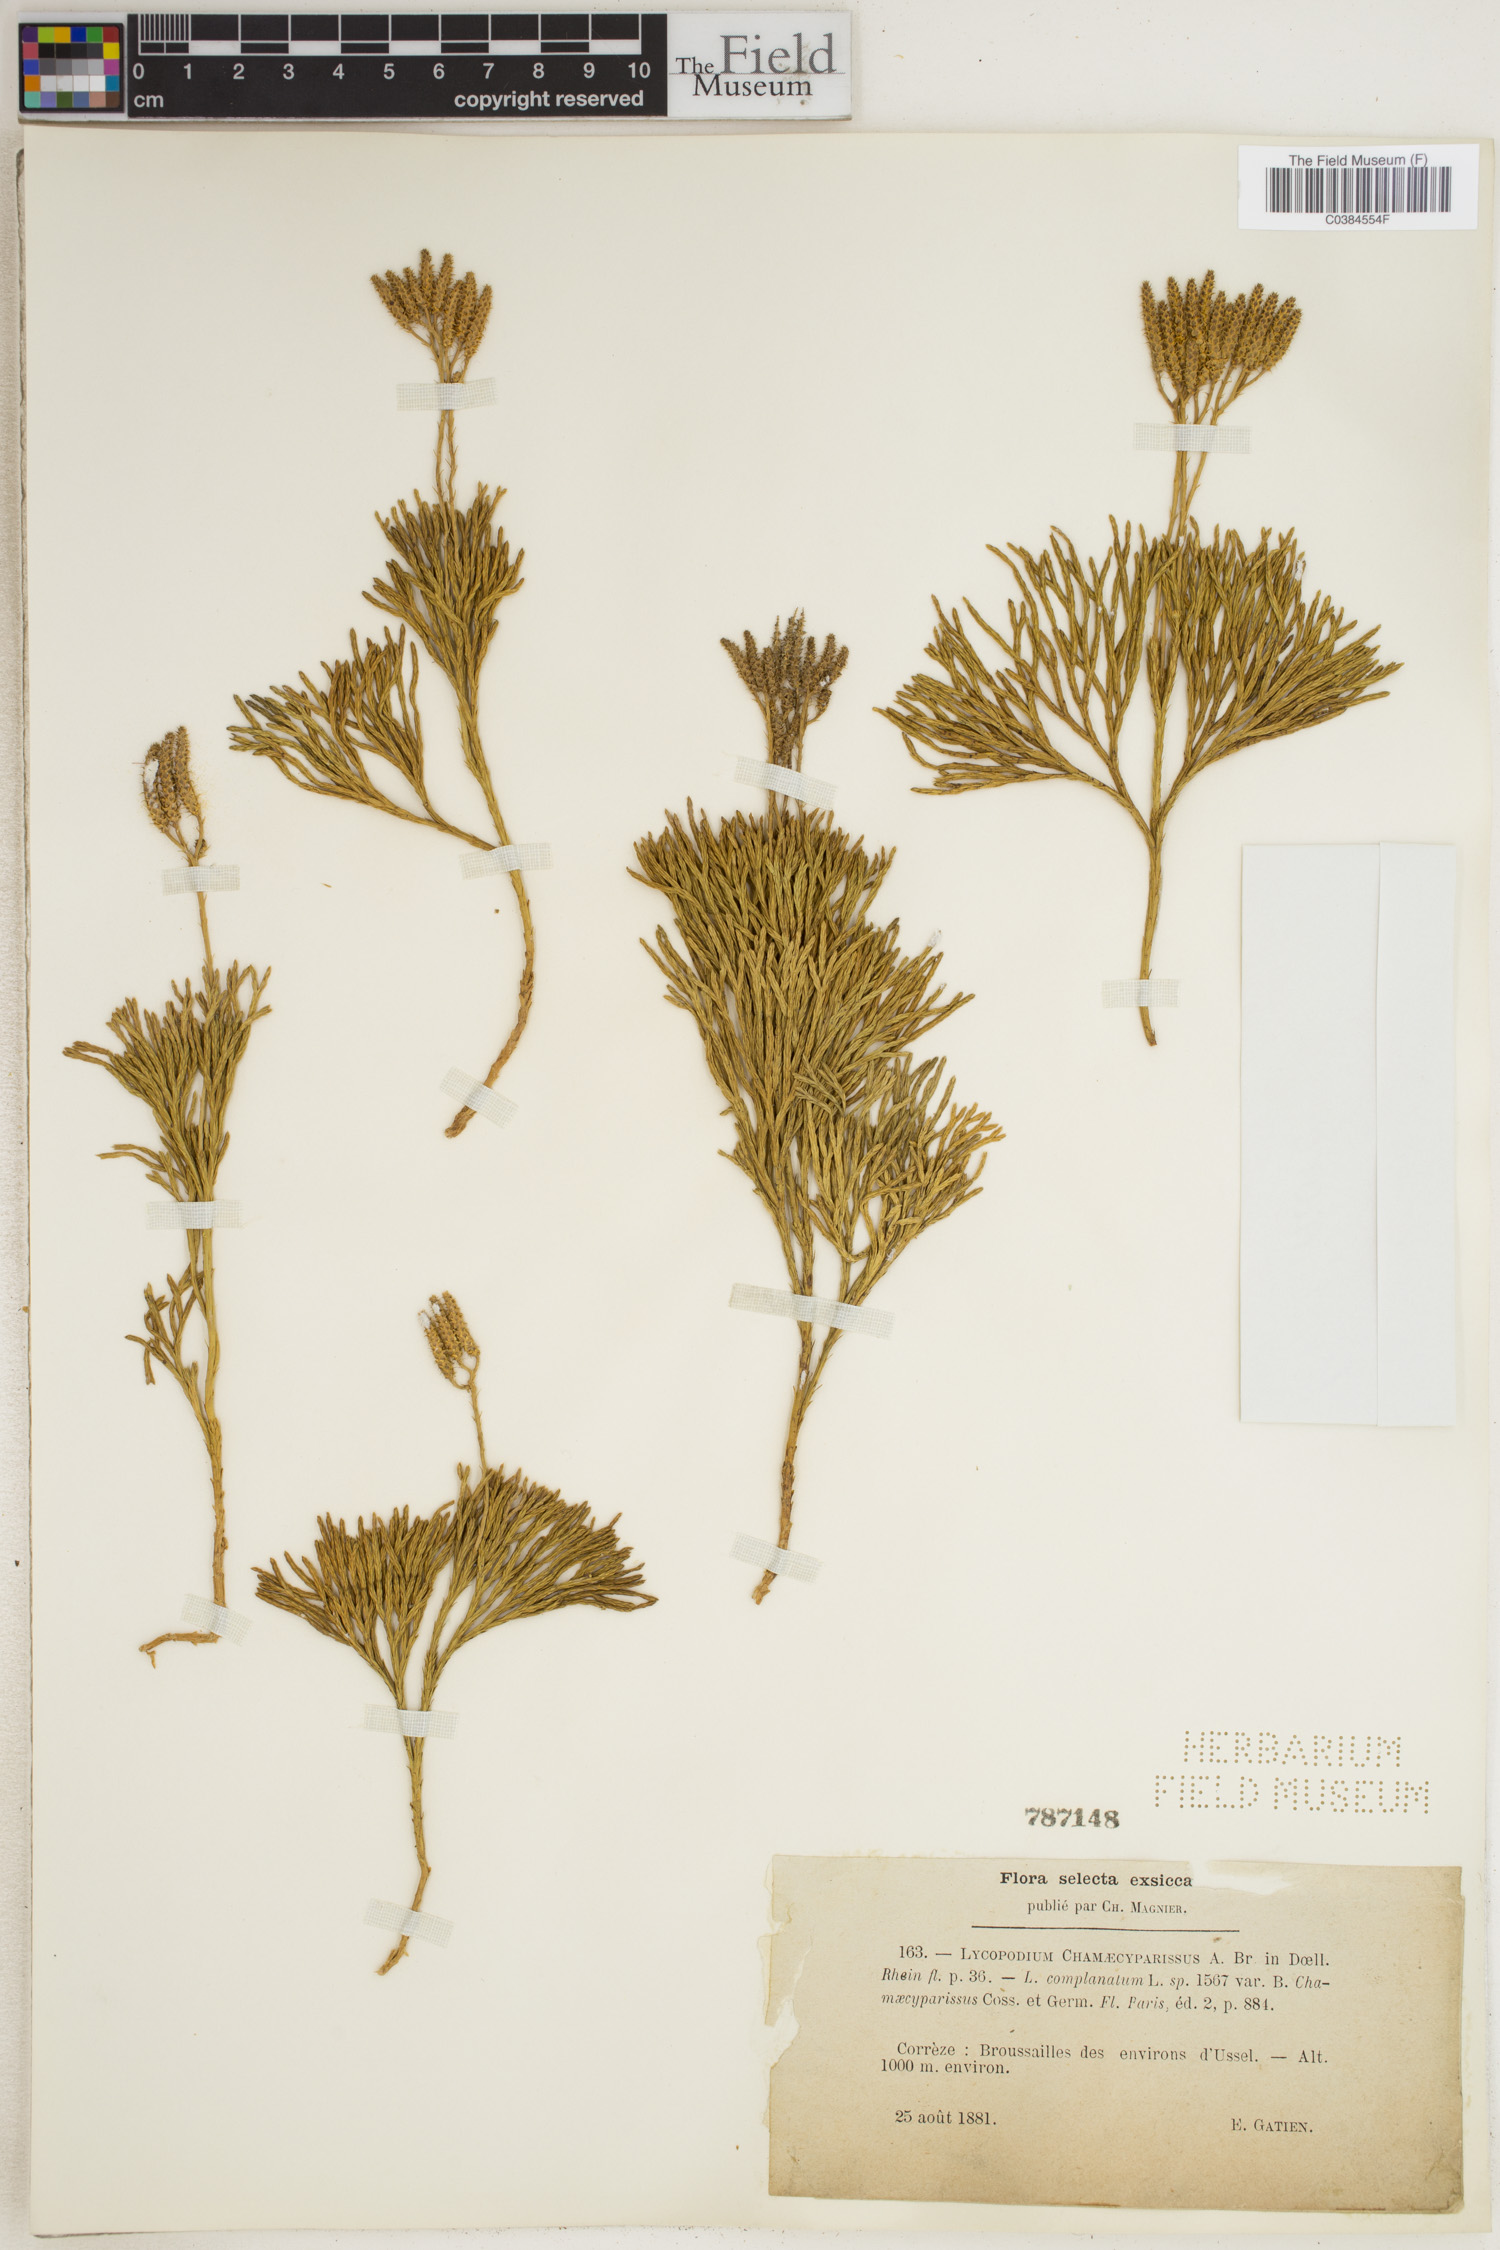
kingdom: Plantae
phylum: Tracheophyta
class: Lycopodiopsida
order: Lycopodiales
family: Lycopodiaceae
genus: Diphasiastrum
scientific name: Diphasiastrum tristachyum
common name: Blue ground-cedar
